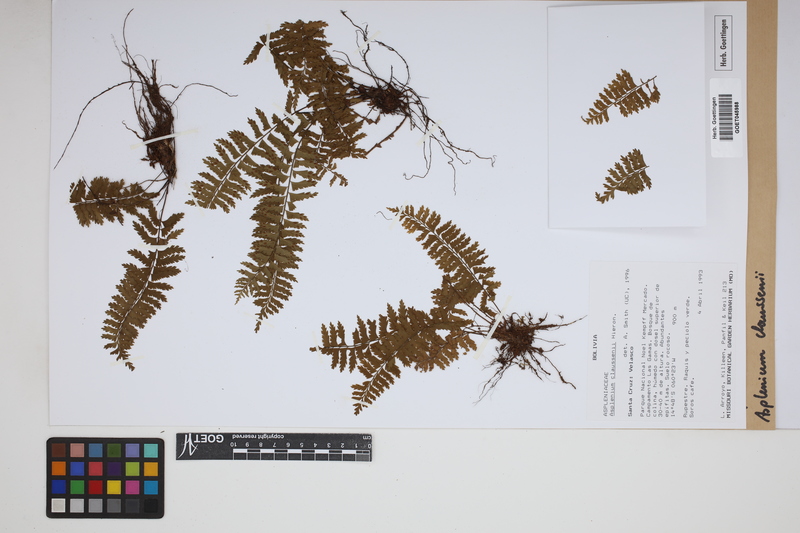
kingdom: Plantae
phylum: Tracheophyta
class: Polypodiopsida
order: Polypodiales
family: Aspleniaceae
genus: Asplenium
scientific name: Asplenium claussenii
